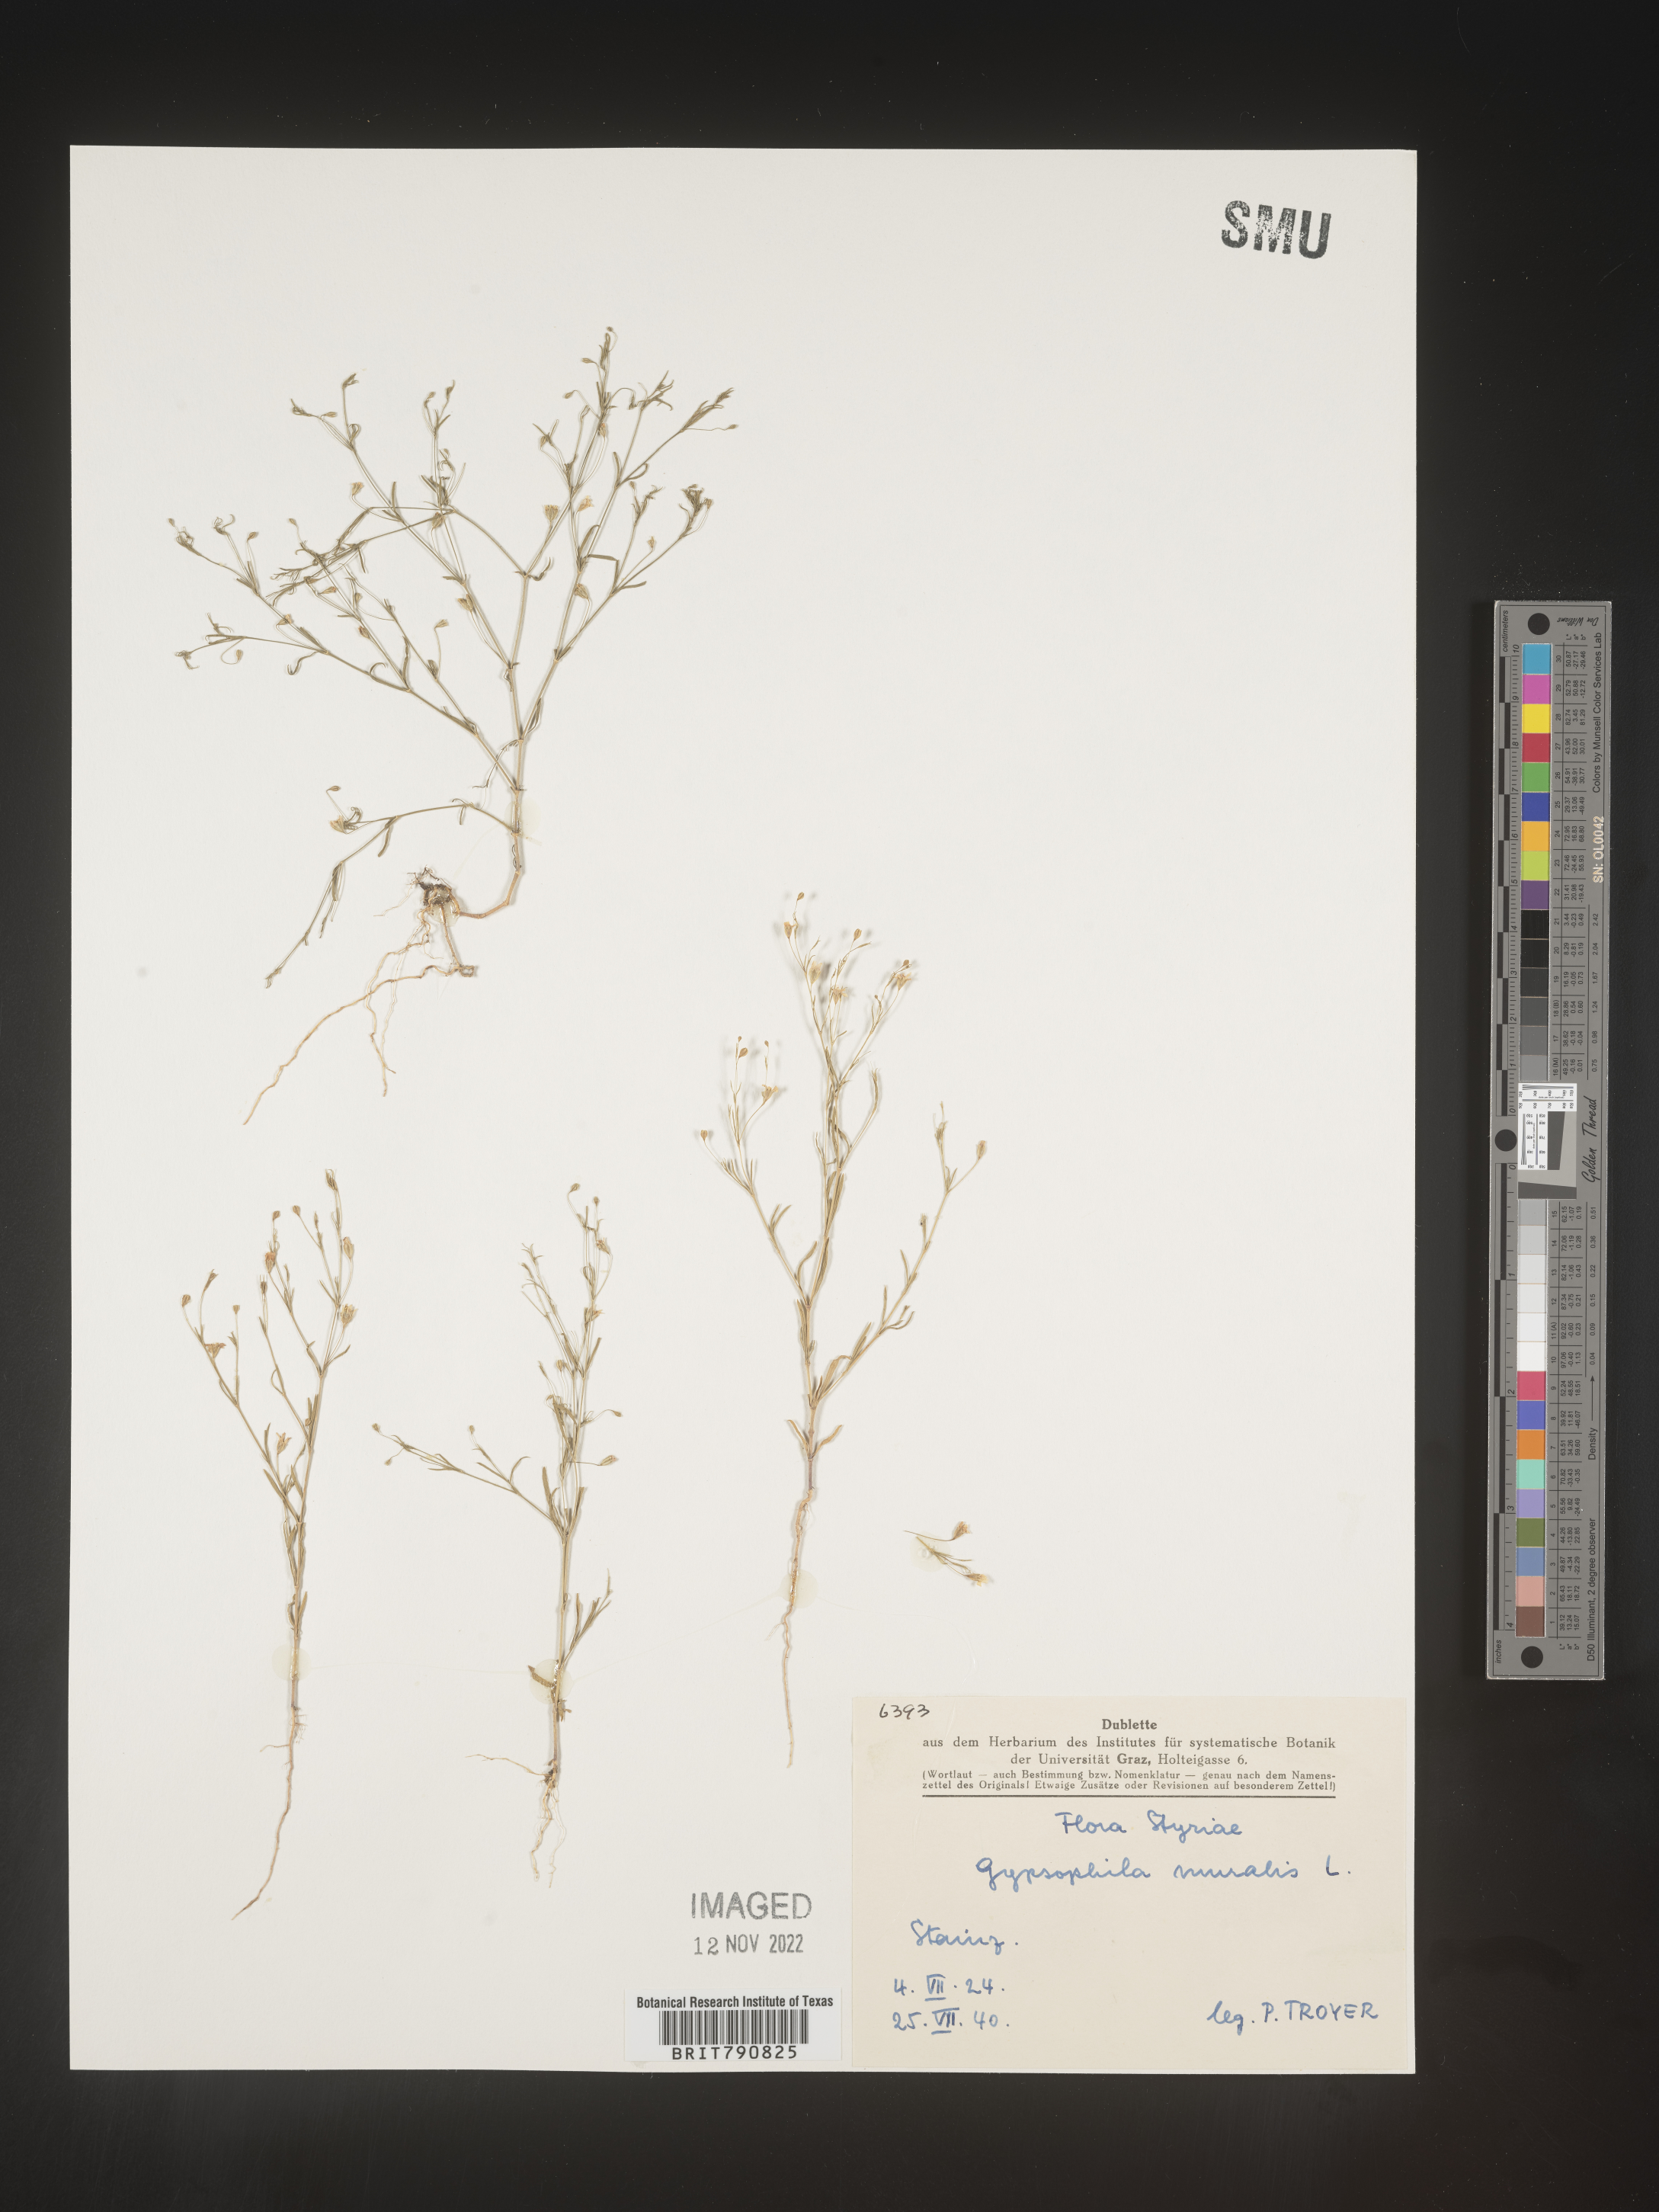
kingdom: Plantae
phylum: Tracheophyta
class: Magnoliopsida
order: Caryophyllales
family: Caryophyllaceae
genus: Gypsophila
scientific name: Gypsophila
